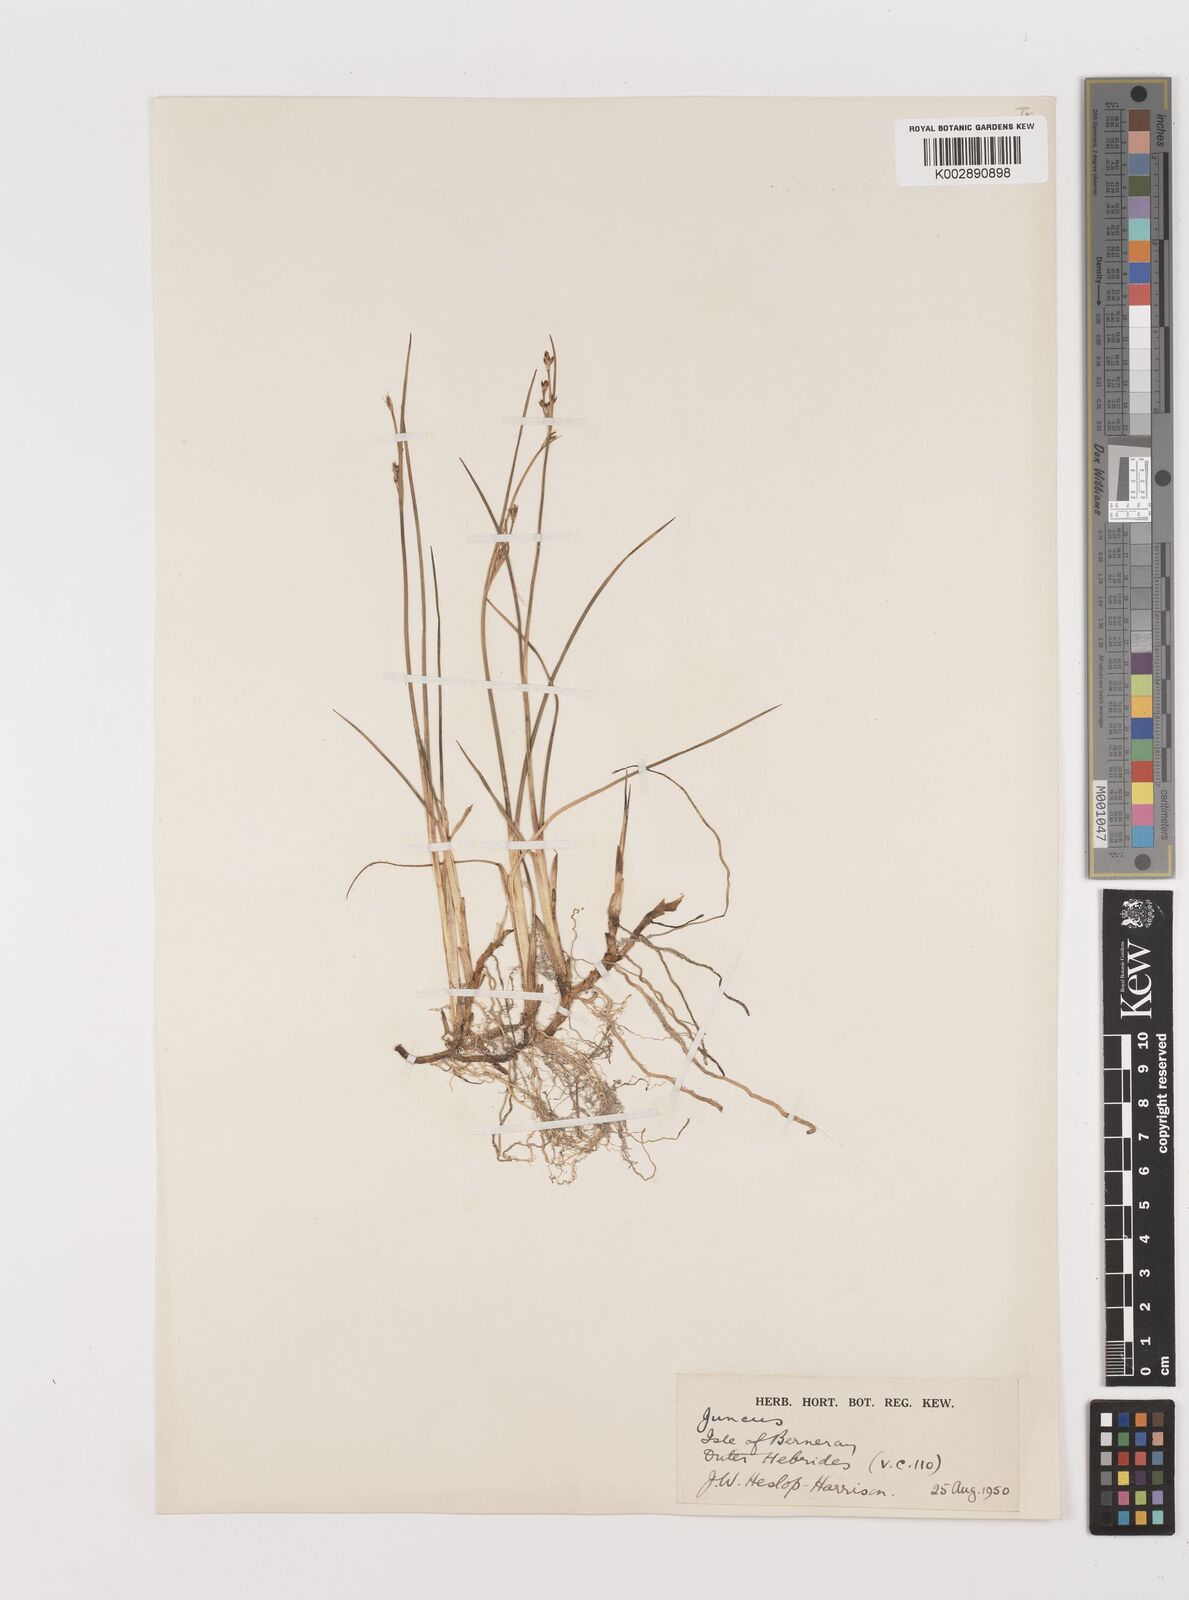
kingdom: Plantae
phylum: Tracheophyta
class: Liliopsida
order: Poales
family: Juncaceae
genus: Juncus
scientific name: Juncus
